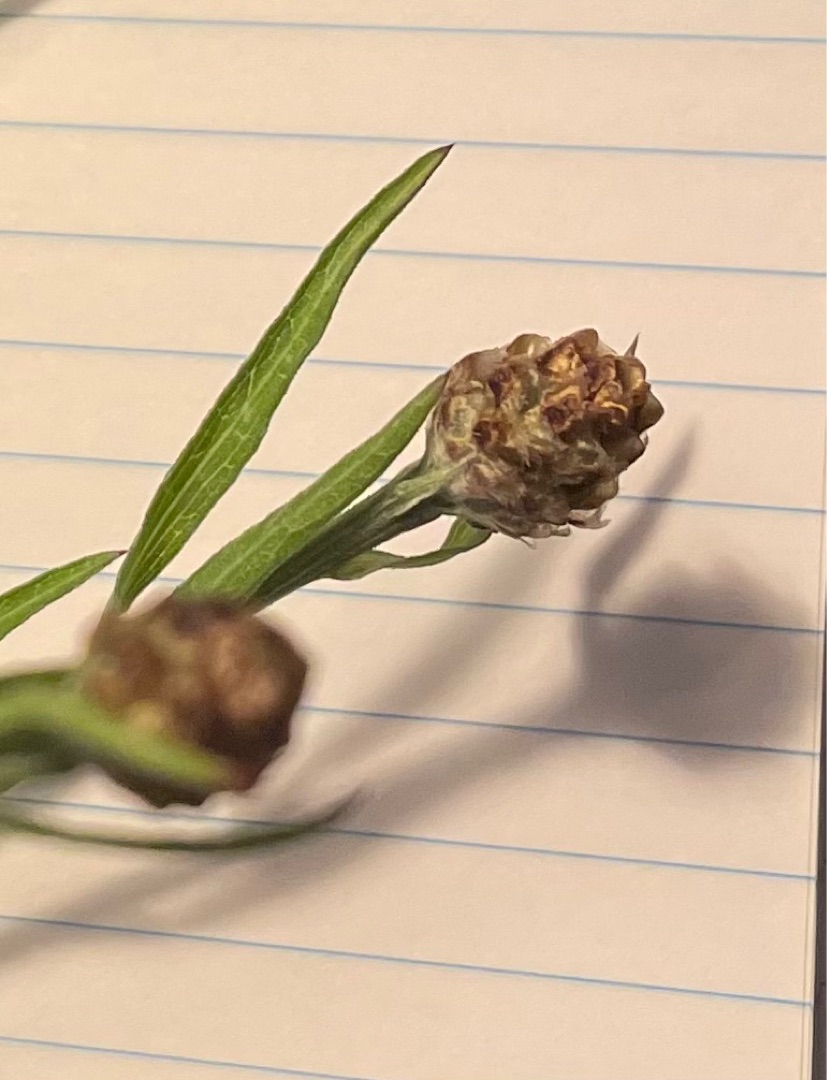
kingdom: Plantae
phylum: Tracheophyta
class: Magnoliopsida
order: Asterales
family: Asteraceae
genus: Centaurea
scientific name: Centaurea jacea
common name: Almindelig knopurt
